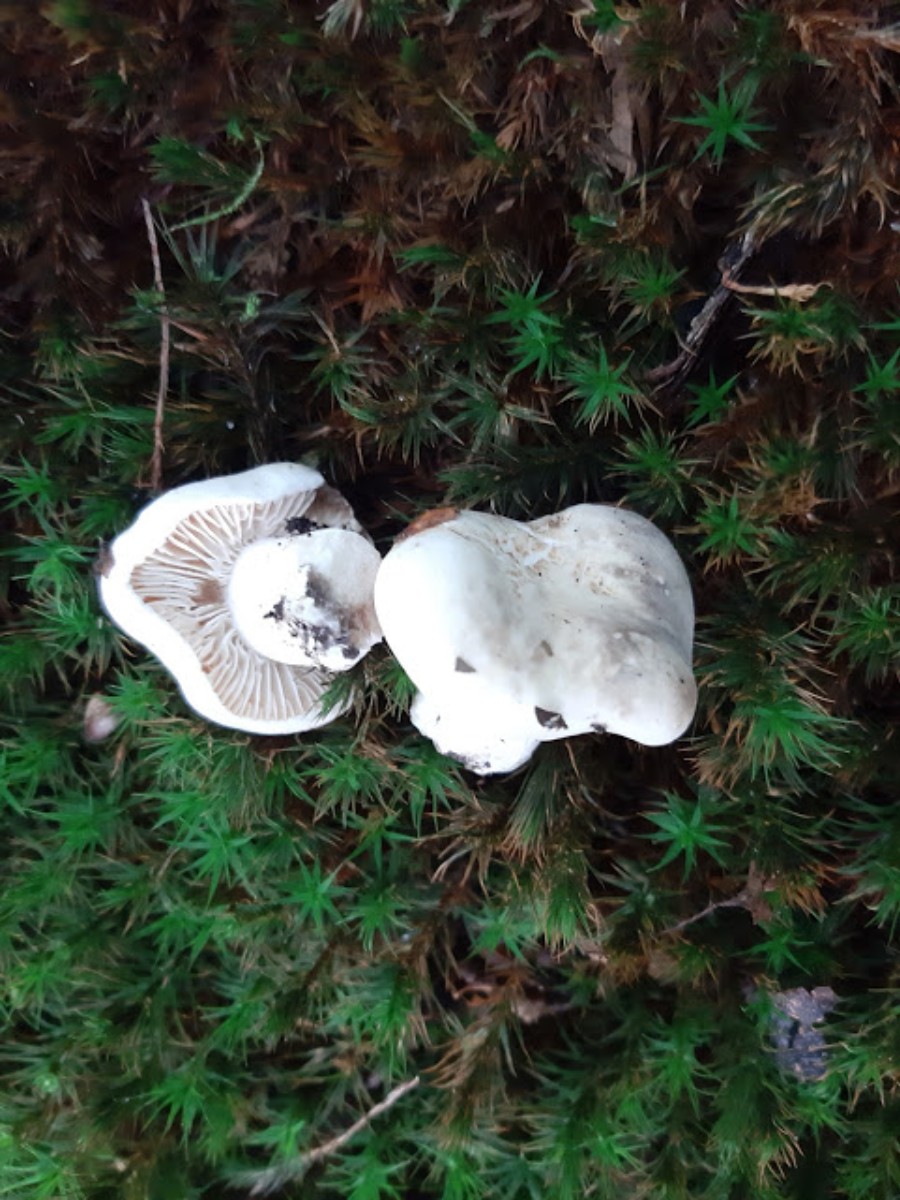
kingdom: Fungi
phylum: Basidiomycota
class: Agaricomycetes
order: Agaricales
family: Entolomataceae
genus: Clitopilus
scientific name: Clitopilus prunulus
